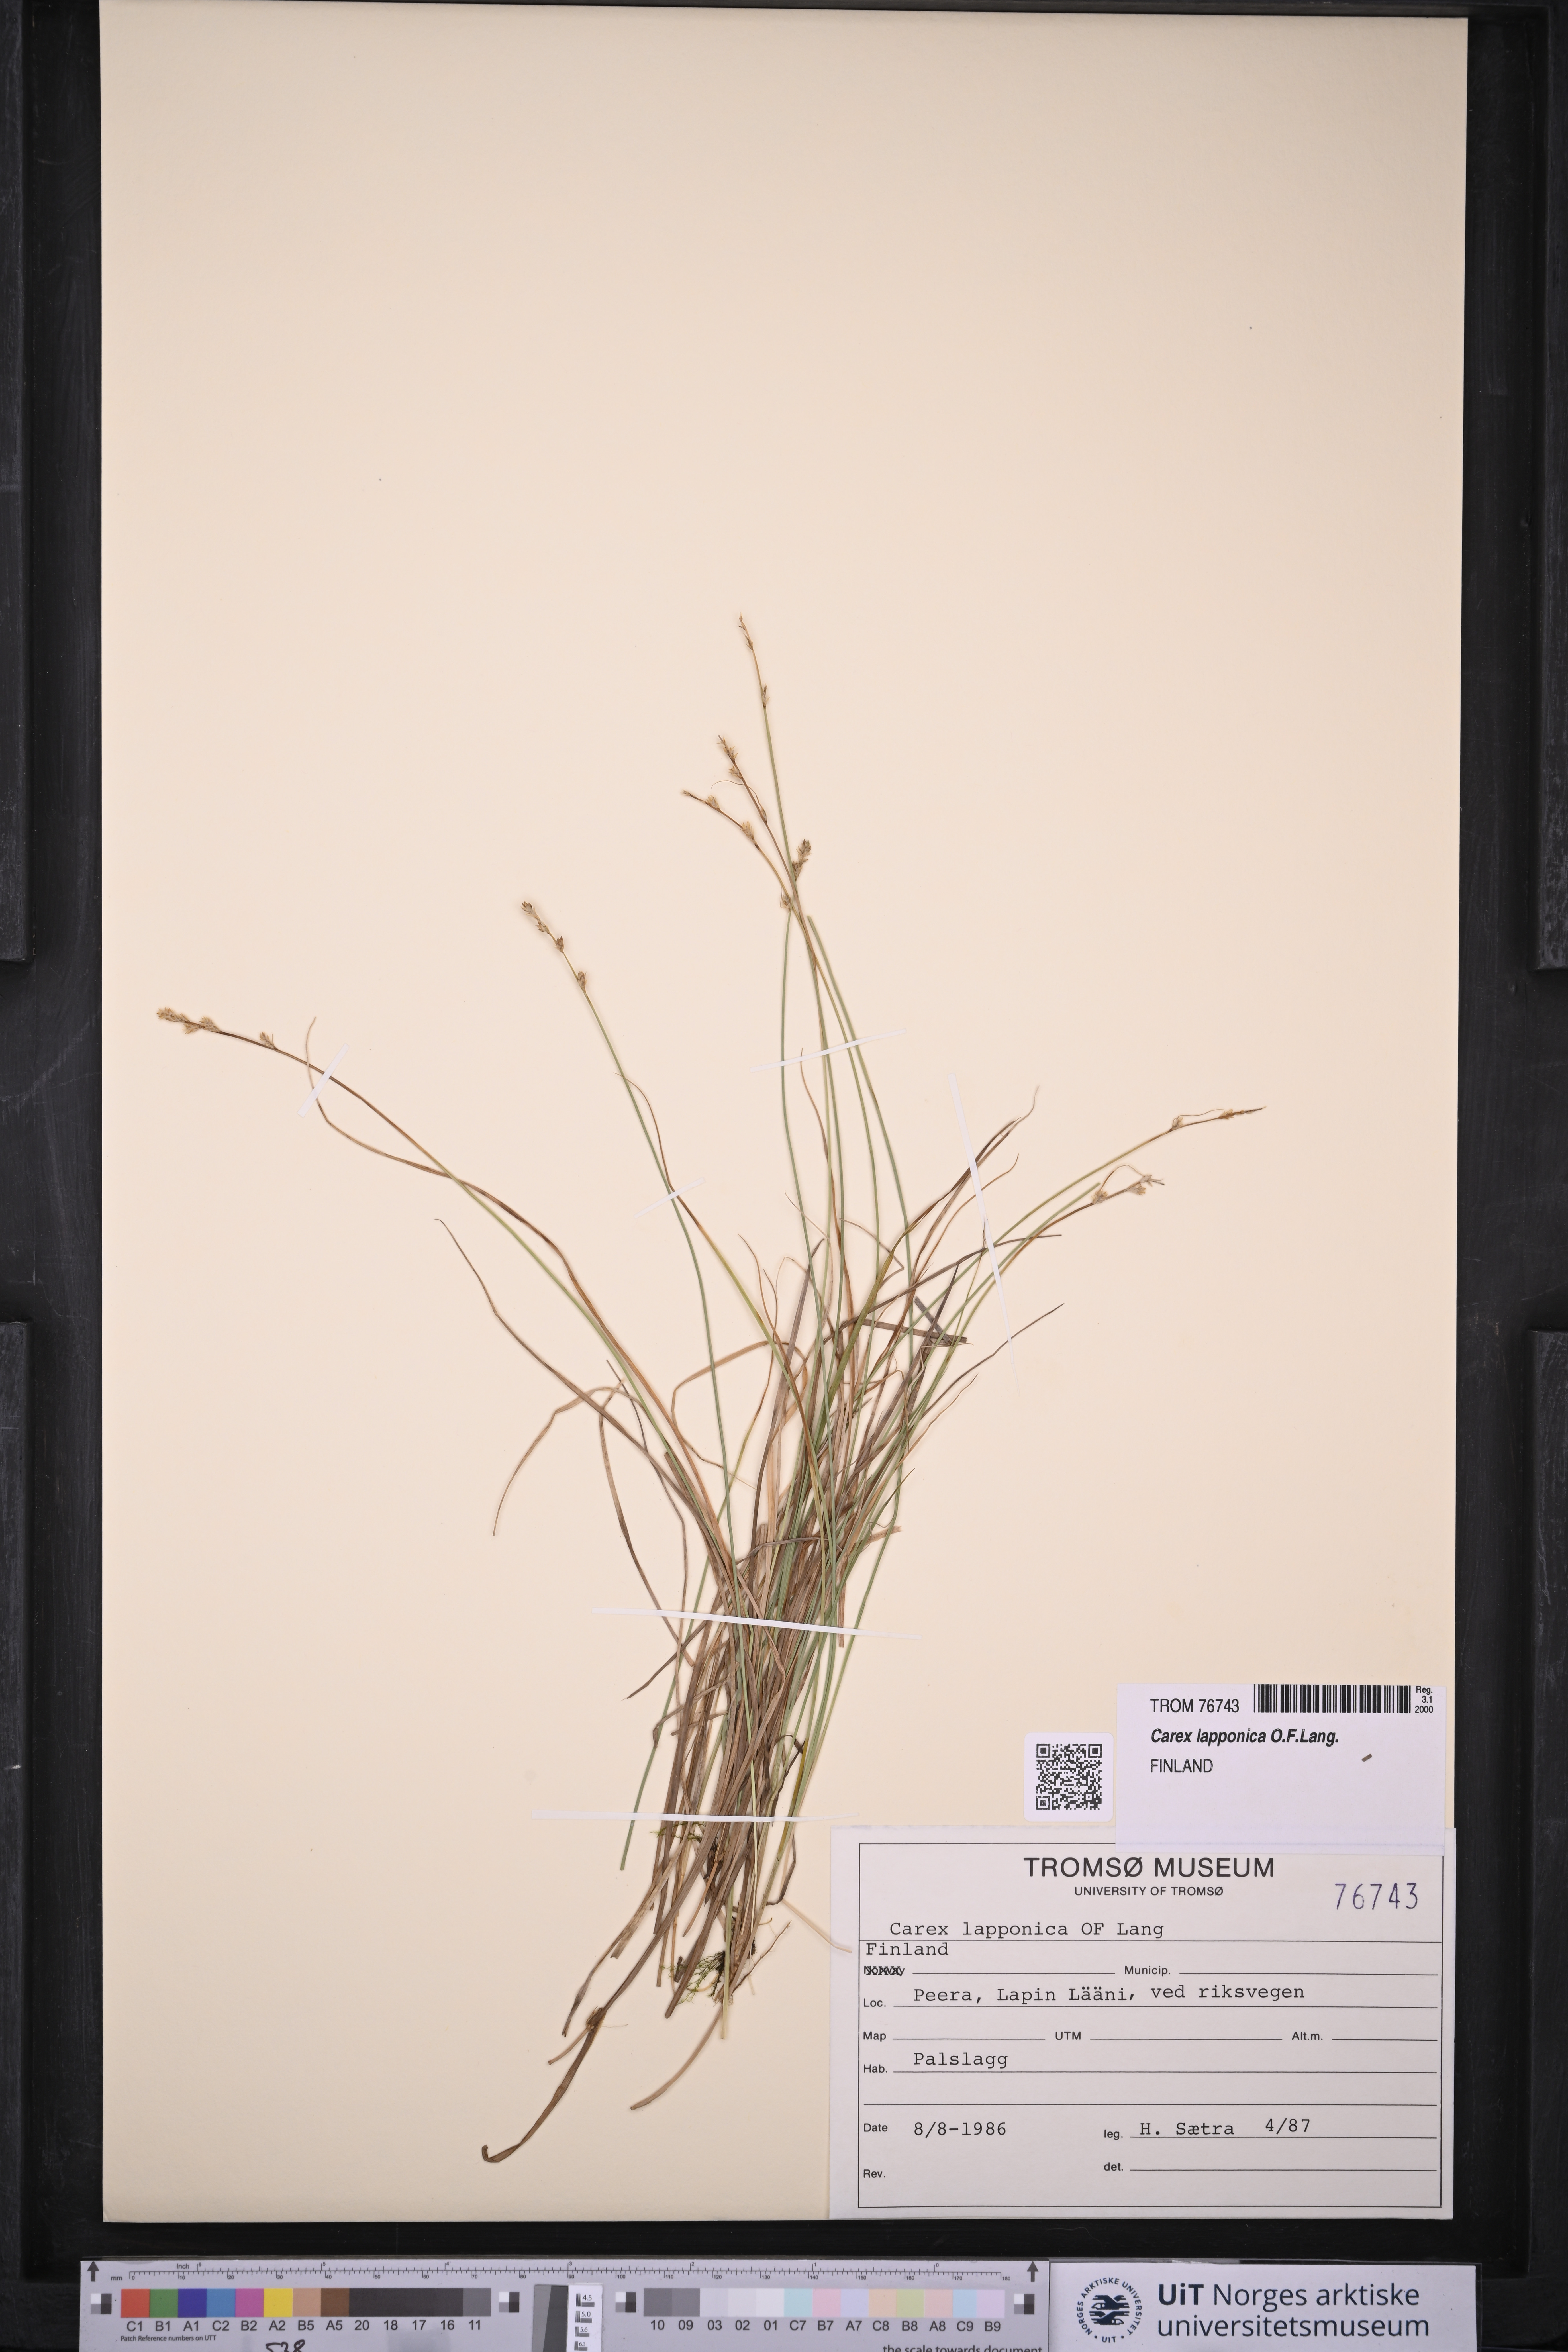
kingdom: Plantae
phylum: Tracheophyta
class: Liliopsida
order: Poales
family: Cyperaceae
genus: Carex
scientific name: Carex lapponica
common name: Lapland sedge
